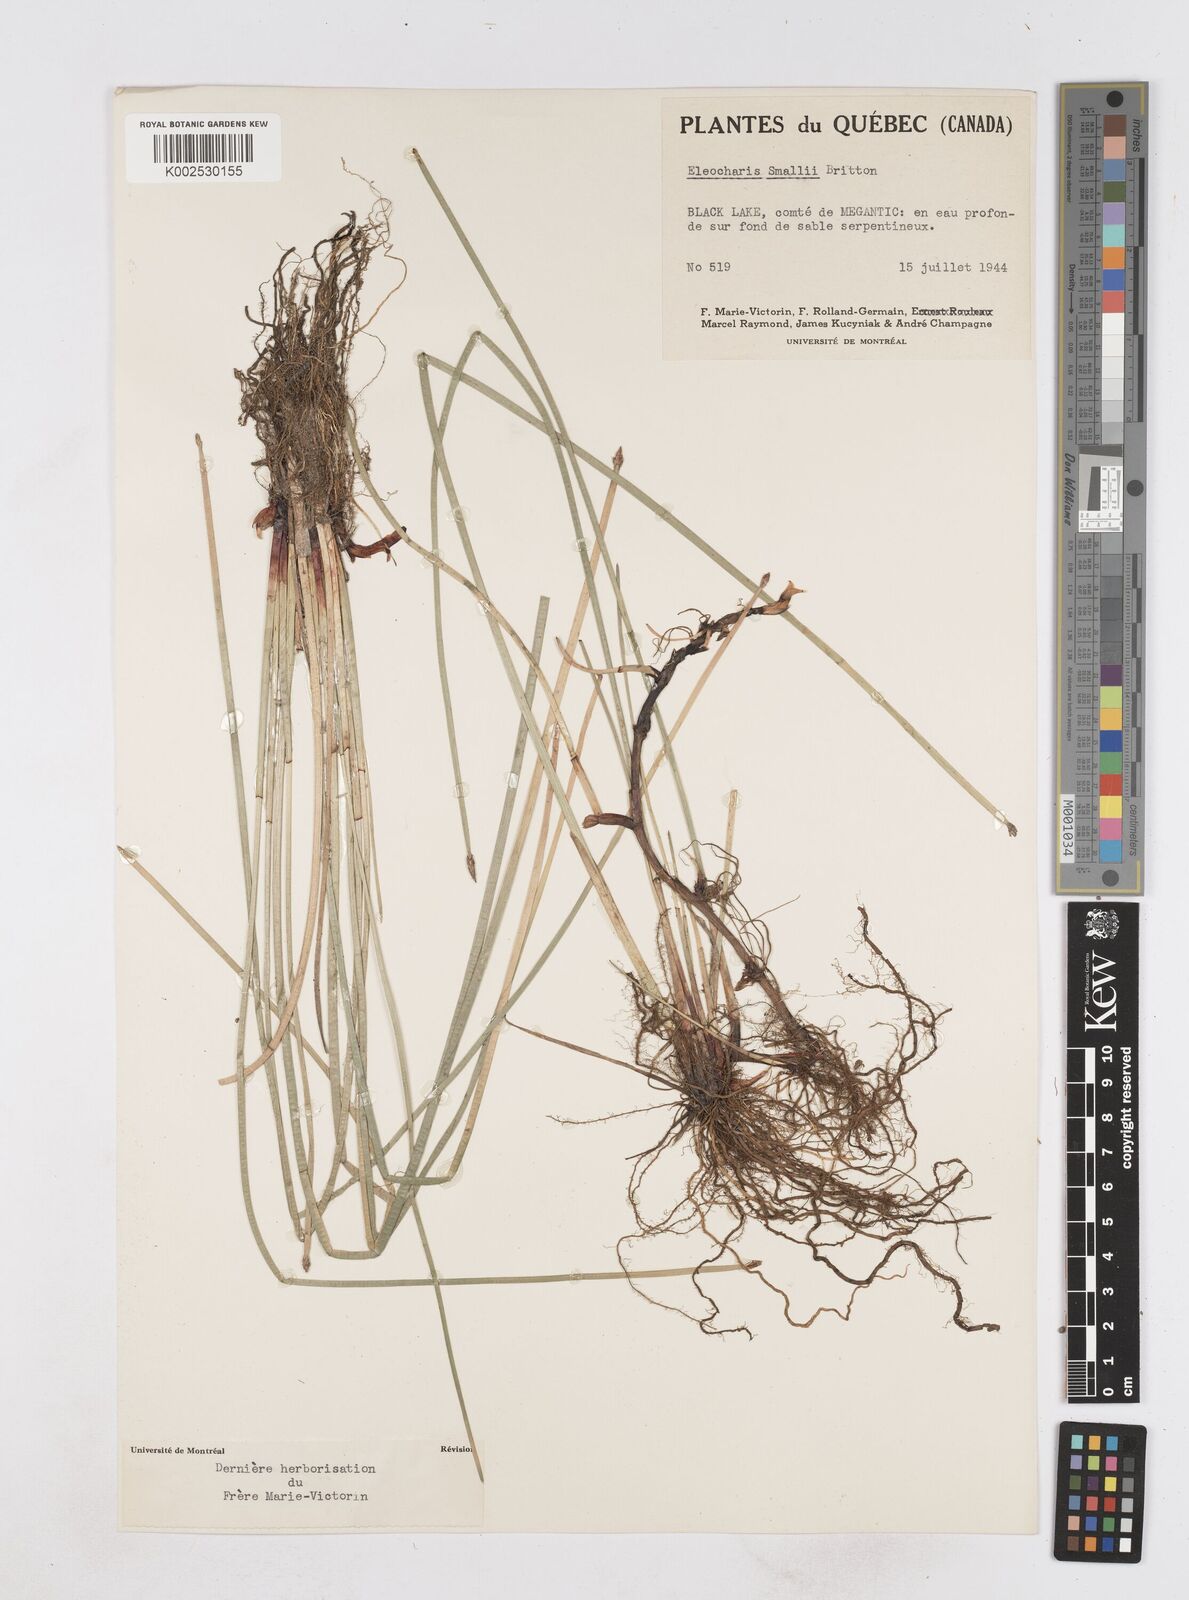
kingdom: Plantae
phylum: Tracheophyta
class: Liliopsida
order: Poales
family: Cyperaceae
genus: Eleocharis
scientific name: Eleocharis palustris
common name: Common spike-rush
